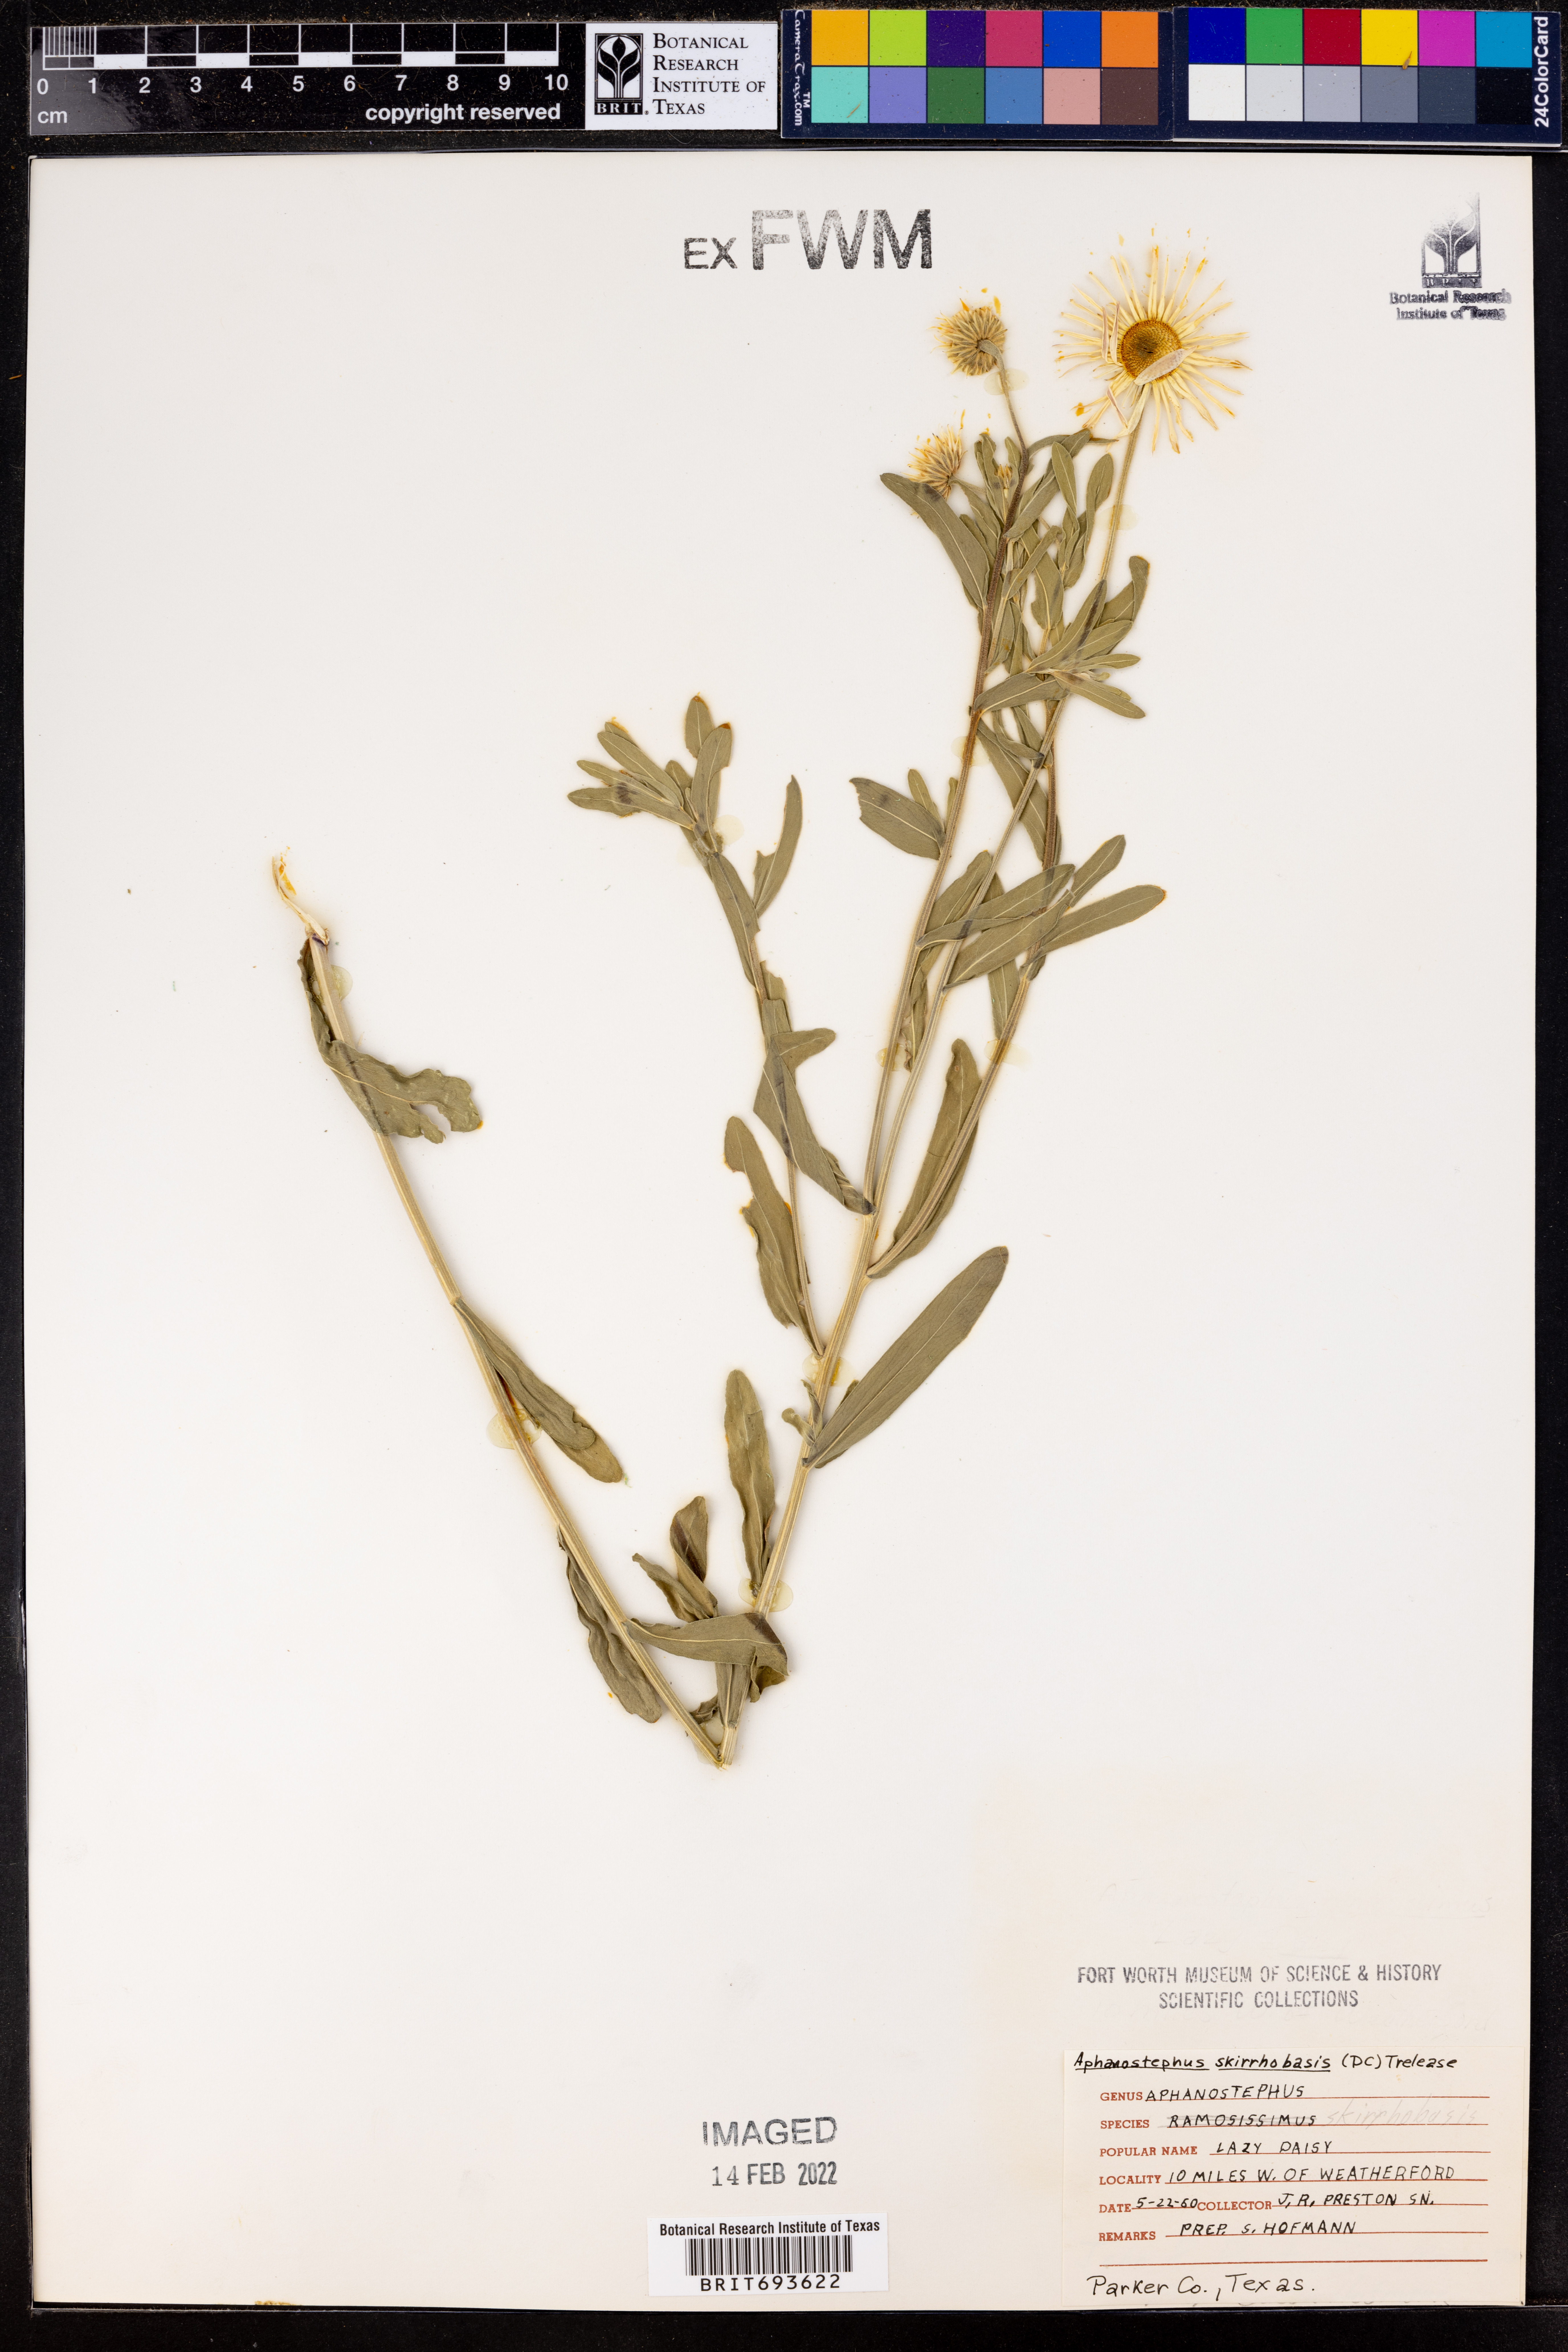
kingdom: Plantae
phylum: Tracheophyta
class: Magnoliopsida
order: Asterales
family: Asteraceae
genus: Aphanostephus
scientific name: Aphanostephus skirrhobasis
